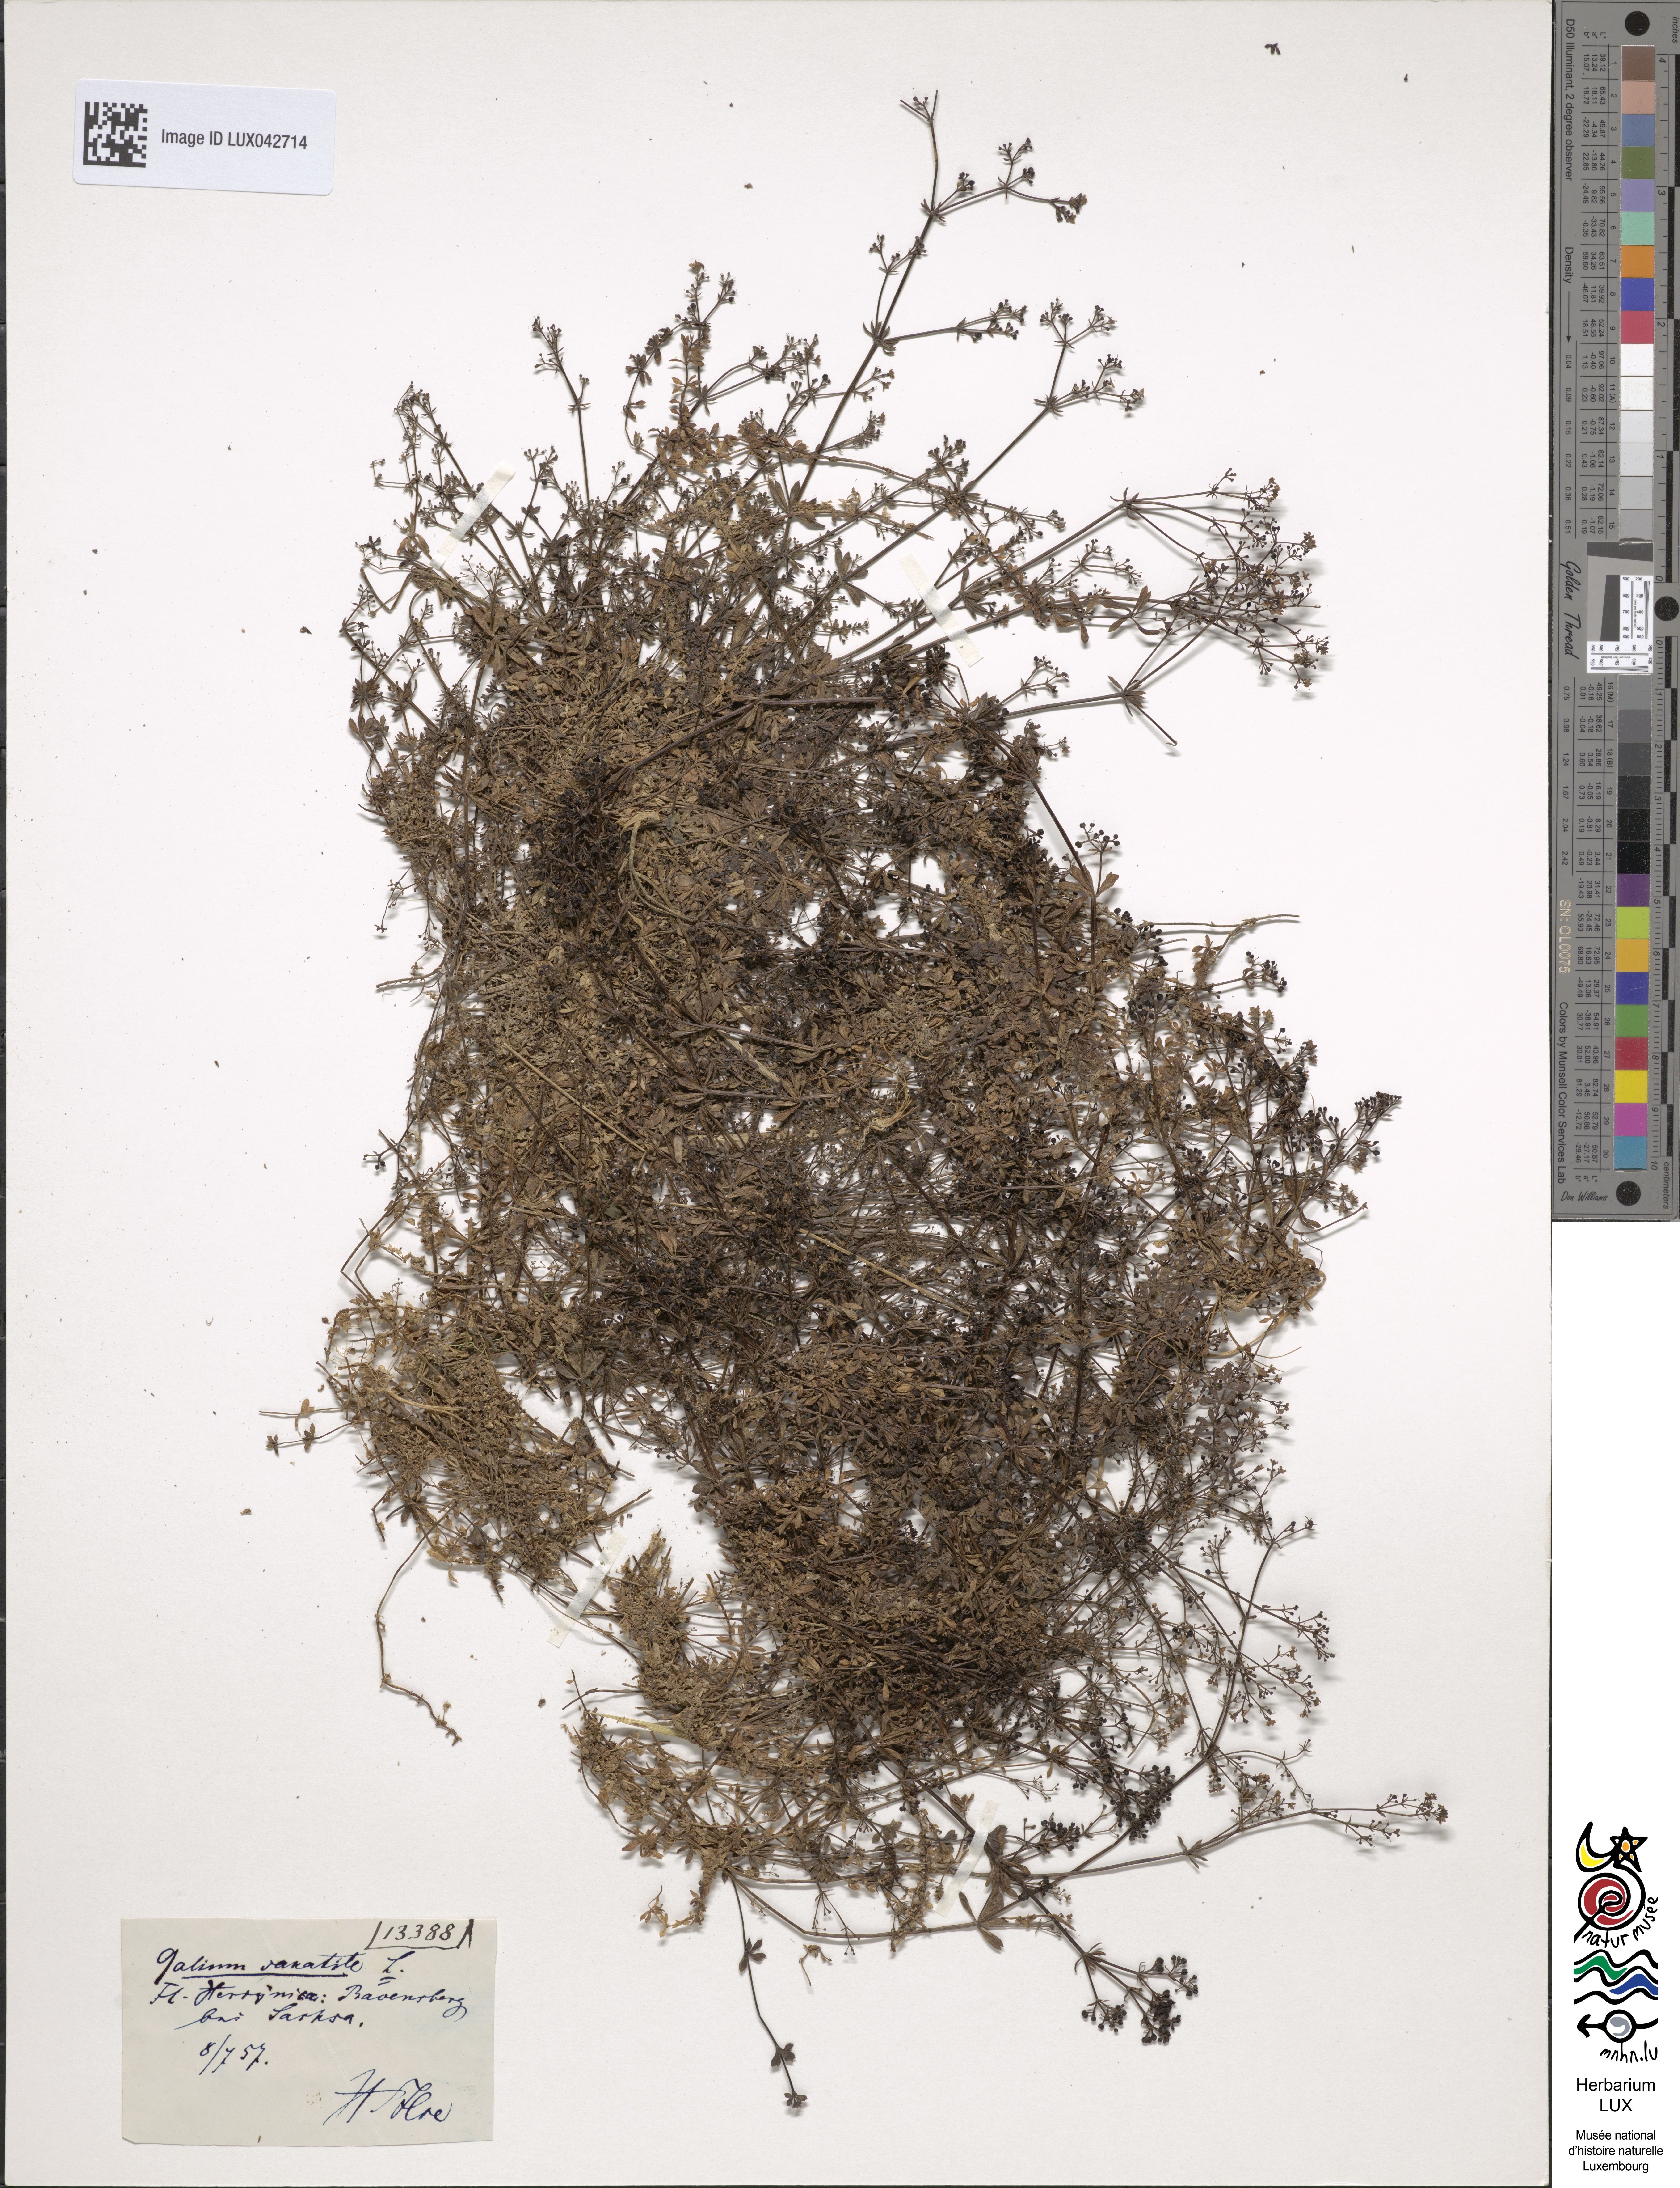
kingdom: Plantae
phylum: Tracheophyta
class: Magnoliopsida
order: Gentianales
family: Rubiaceae
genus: Galium
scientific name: Galium saxatile
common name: Heath bedstraw
